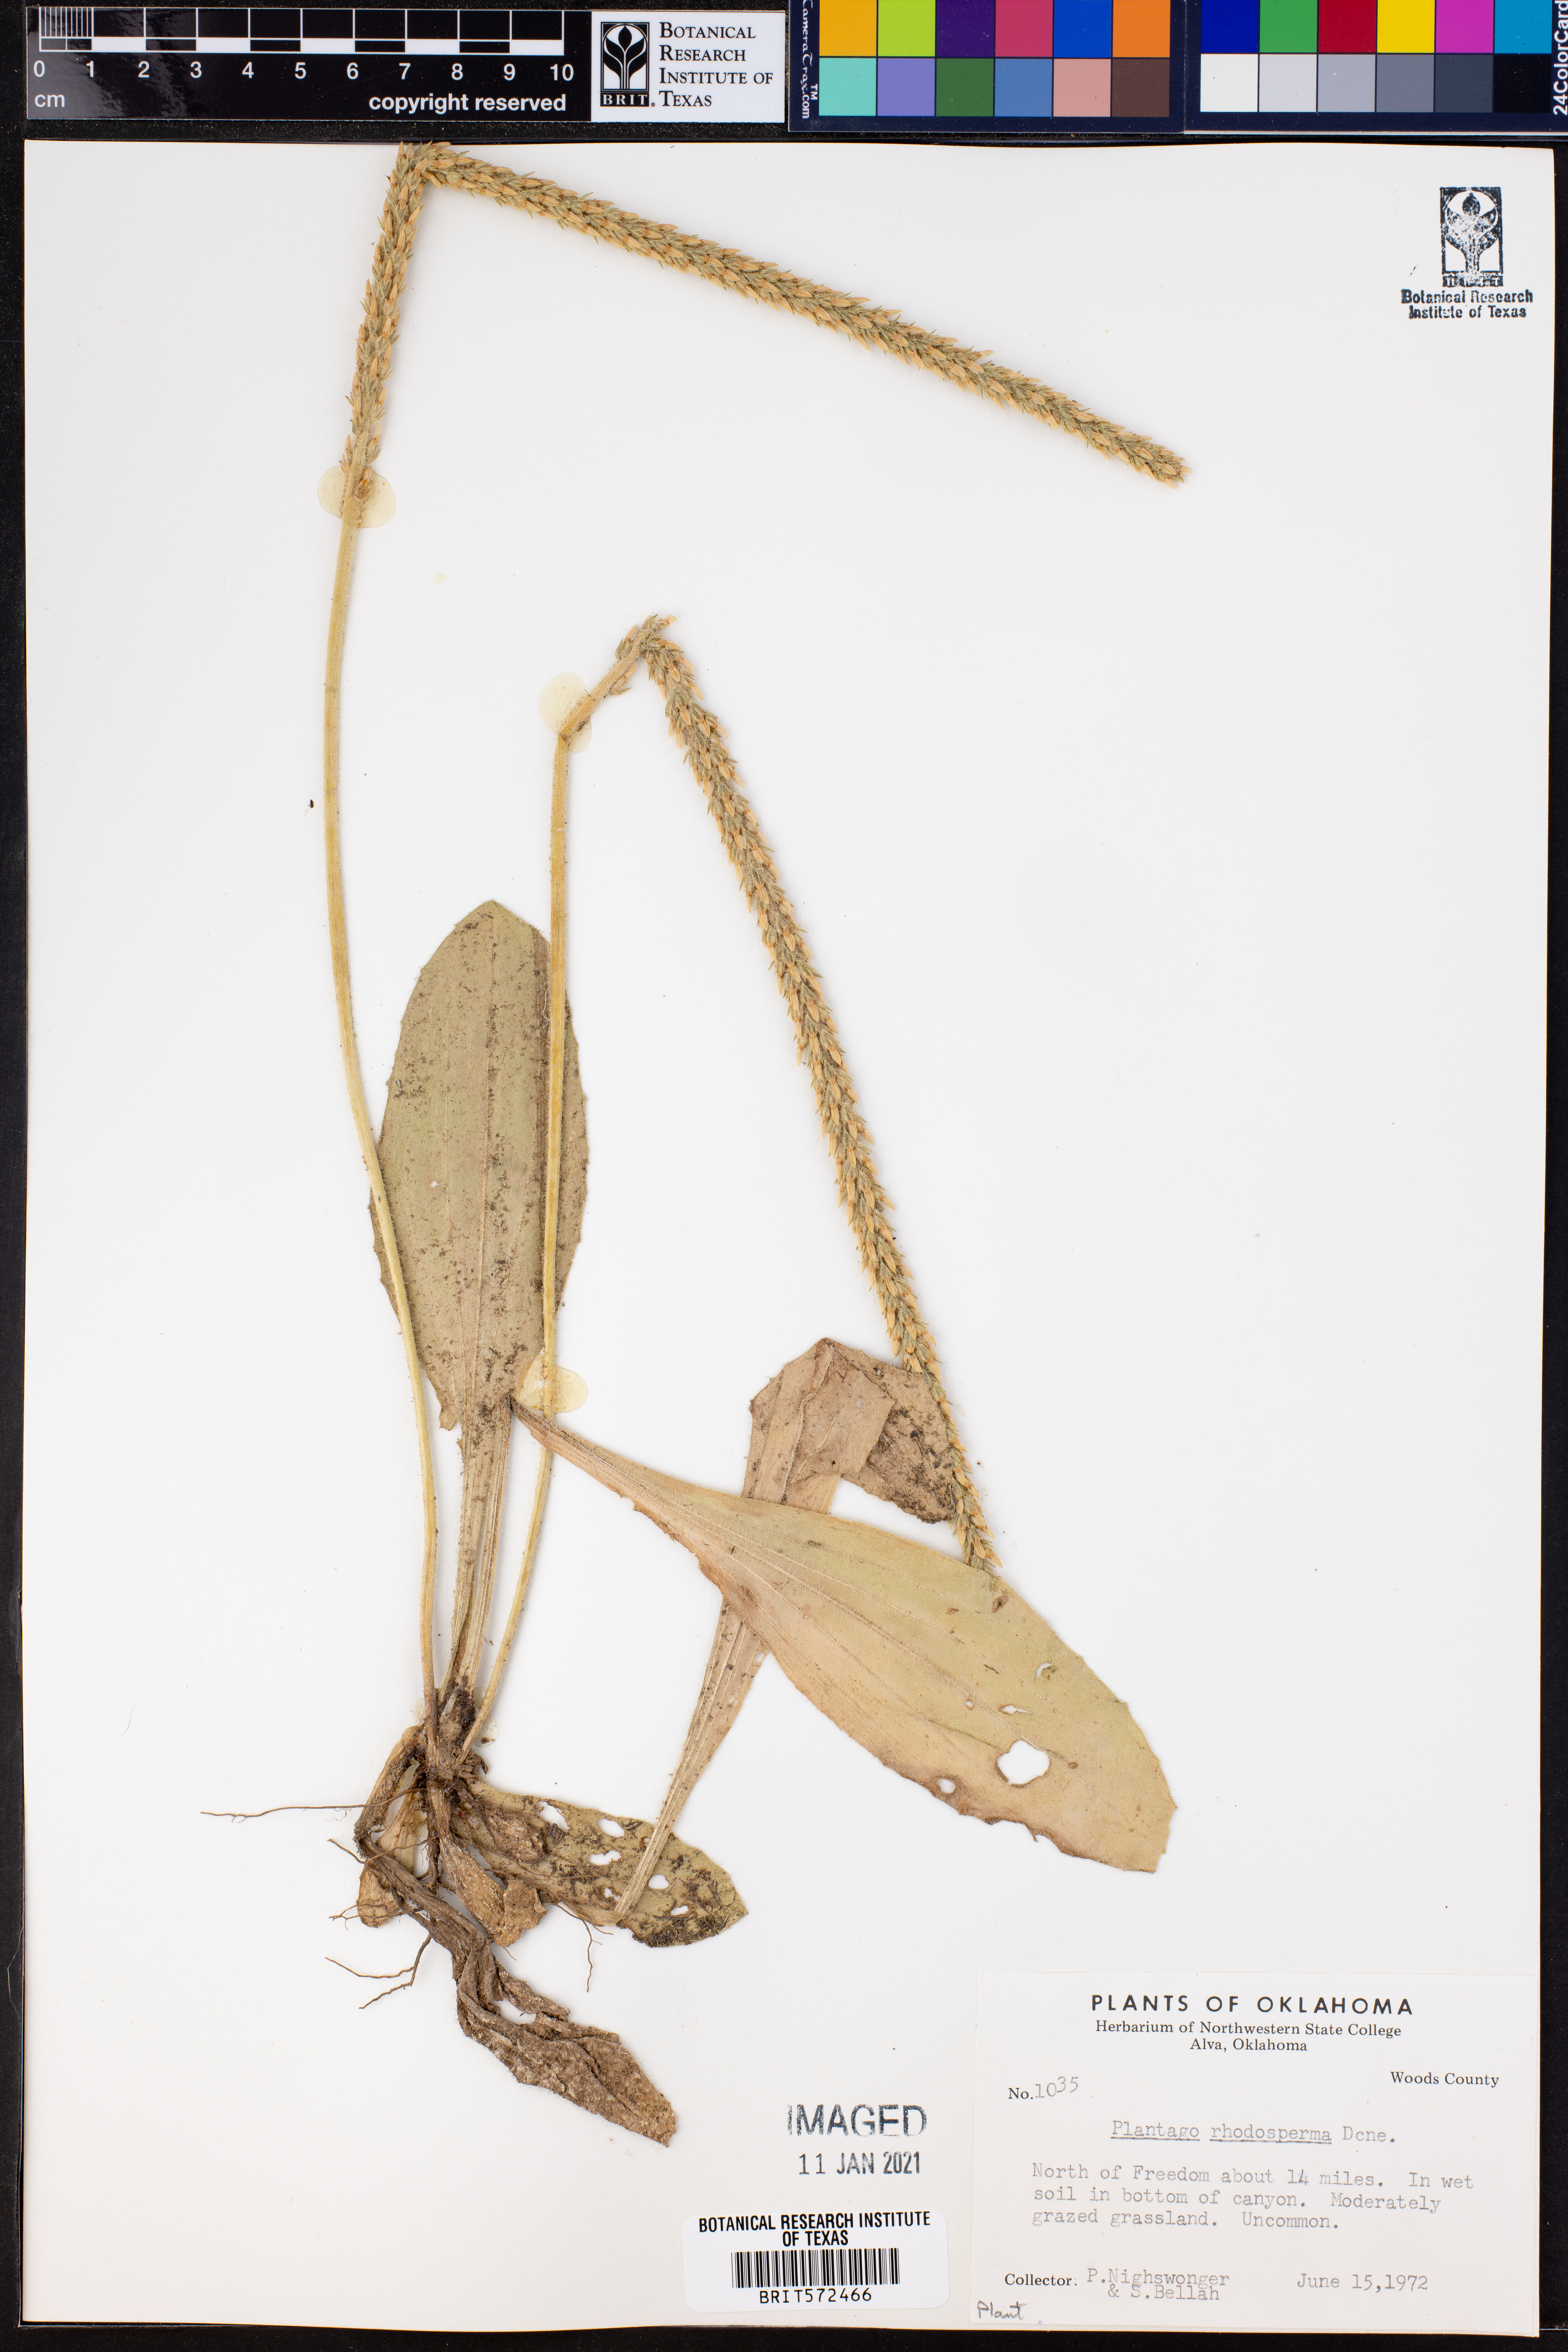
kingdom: Plantae
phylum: Tracheophyta
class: Magnoliopsida
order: Lamiales
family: Plantaginaceae
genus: Plantago
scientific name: Plantago rhodosperma
